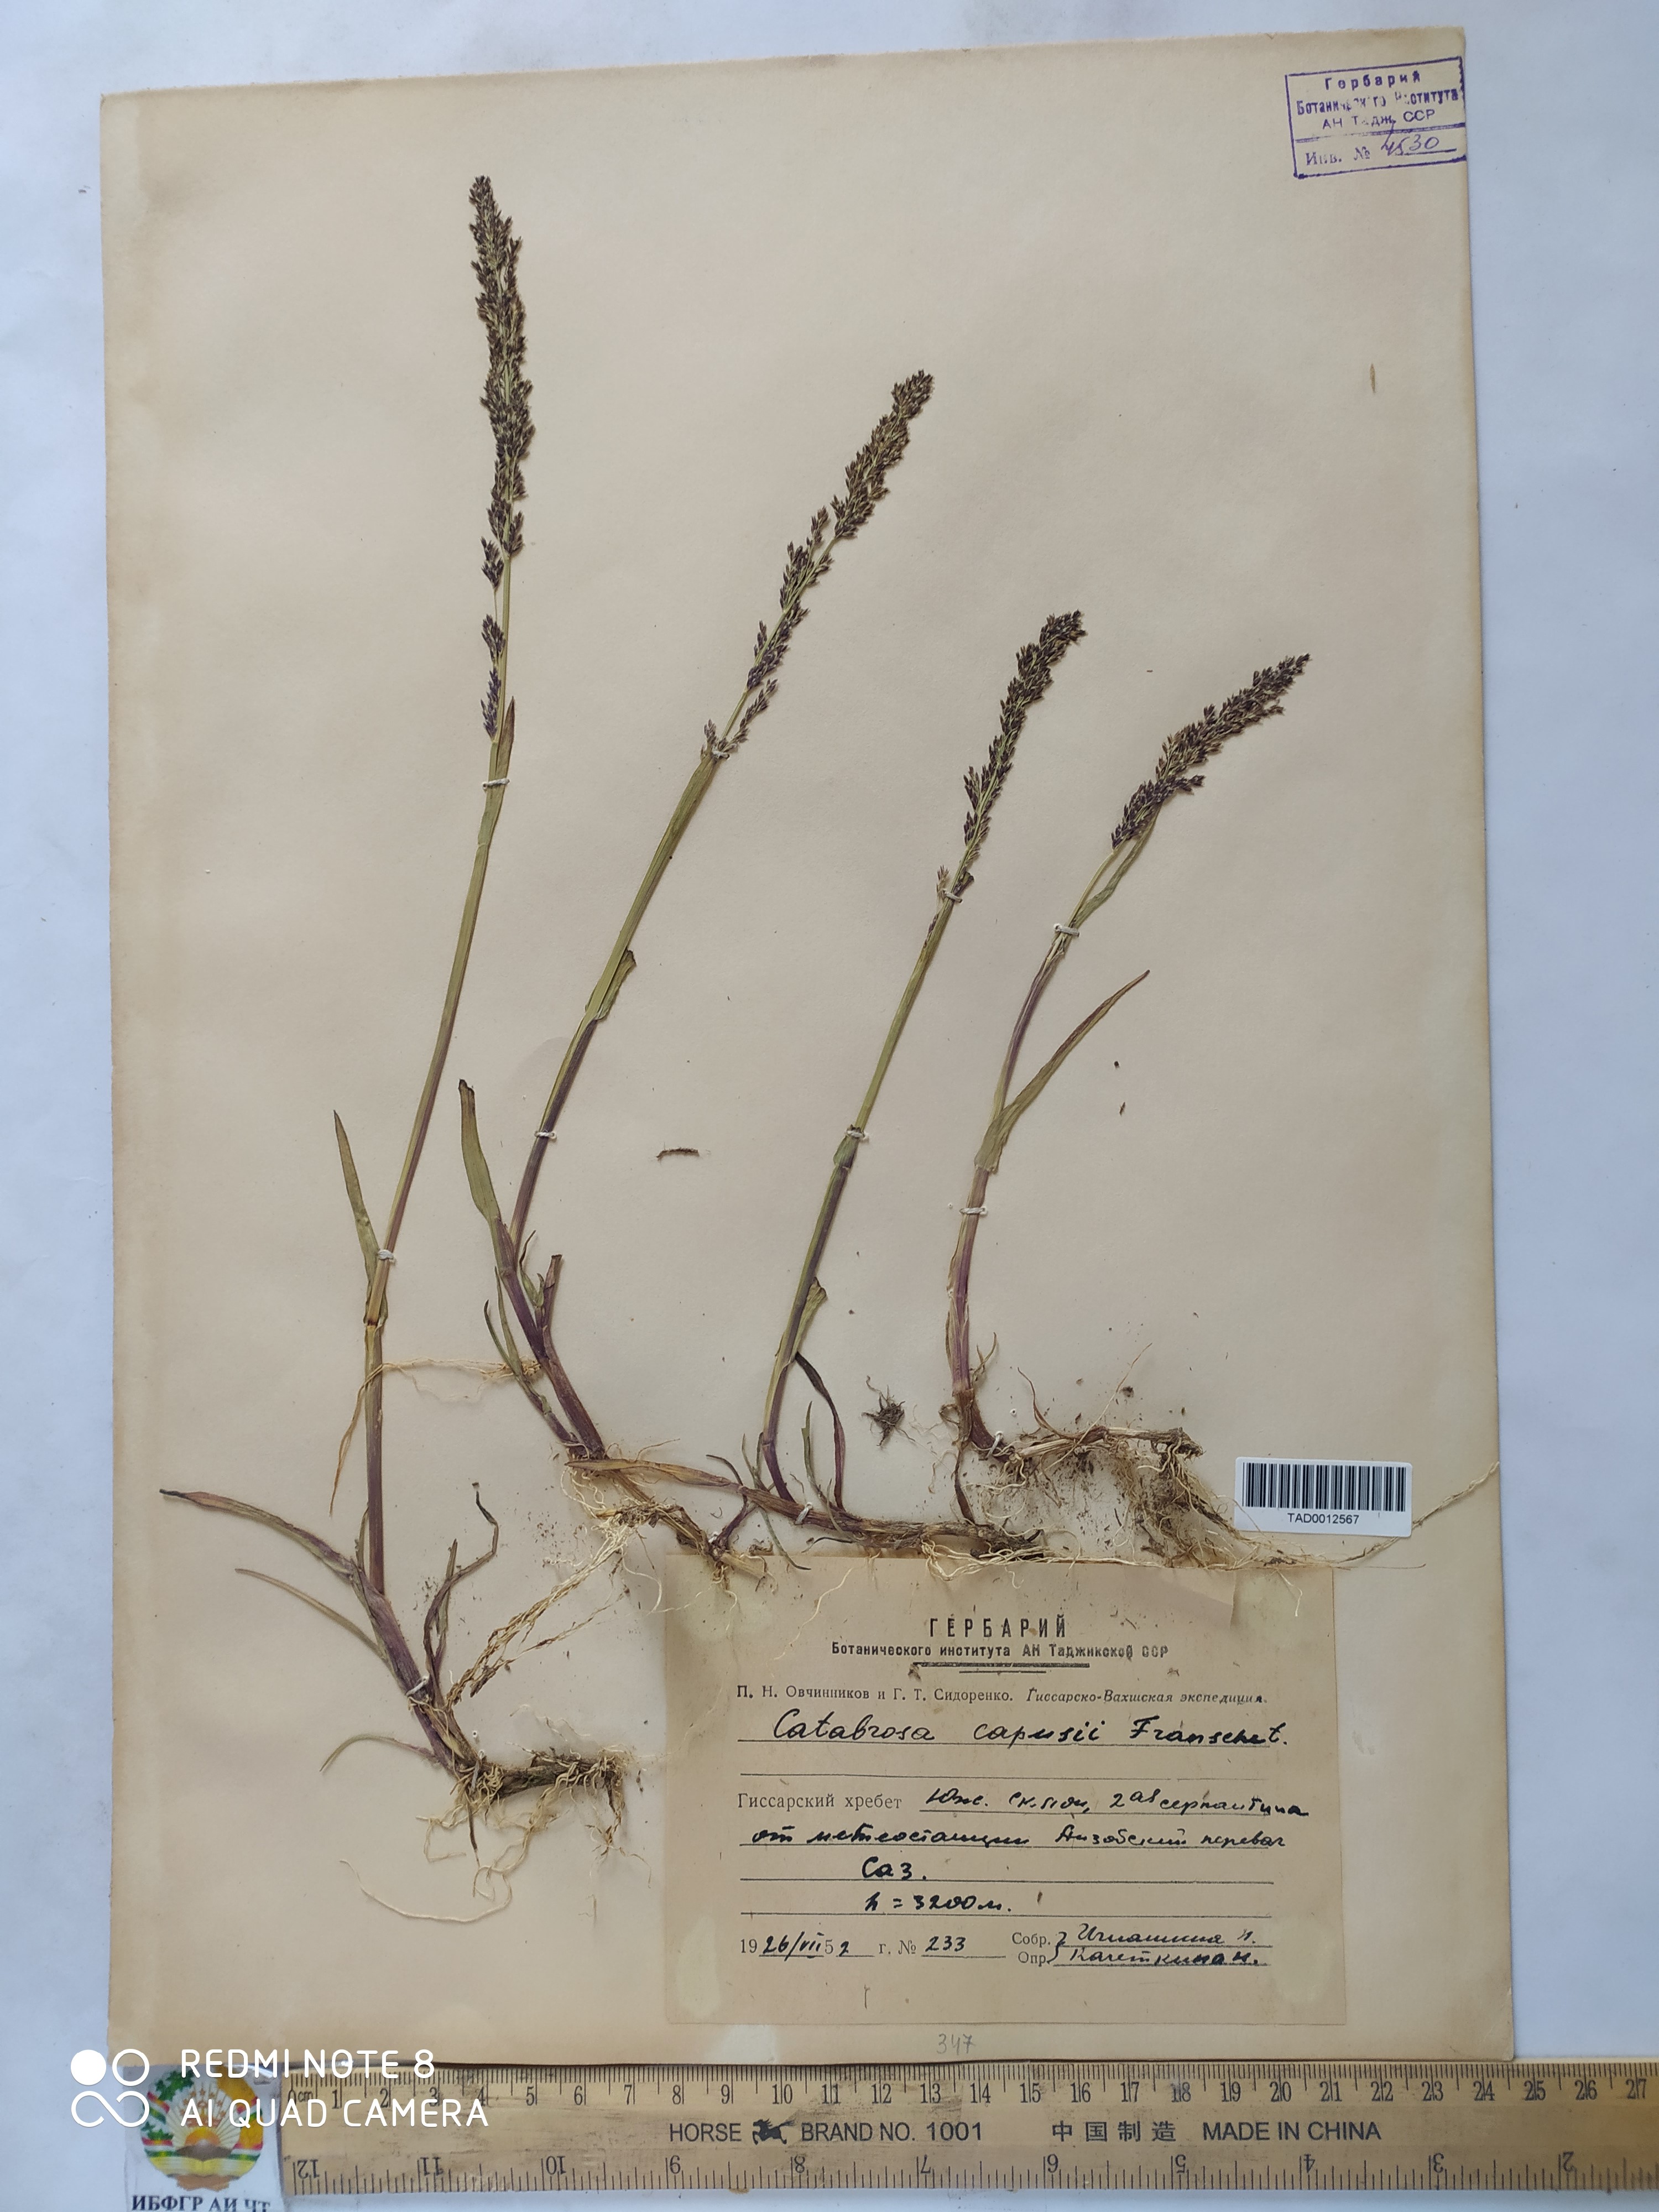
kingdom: Plantae
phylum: Tracheophyta
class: Liliopsida
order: Poales
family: Poaceae
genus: Catabrosa
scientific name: Catabrosa aquatica
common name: Whorl-grass
